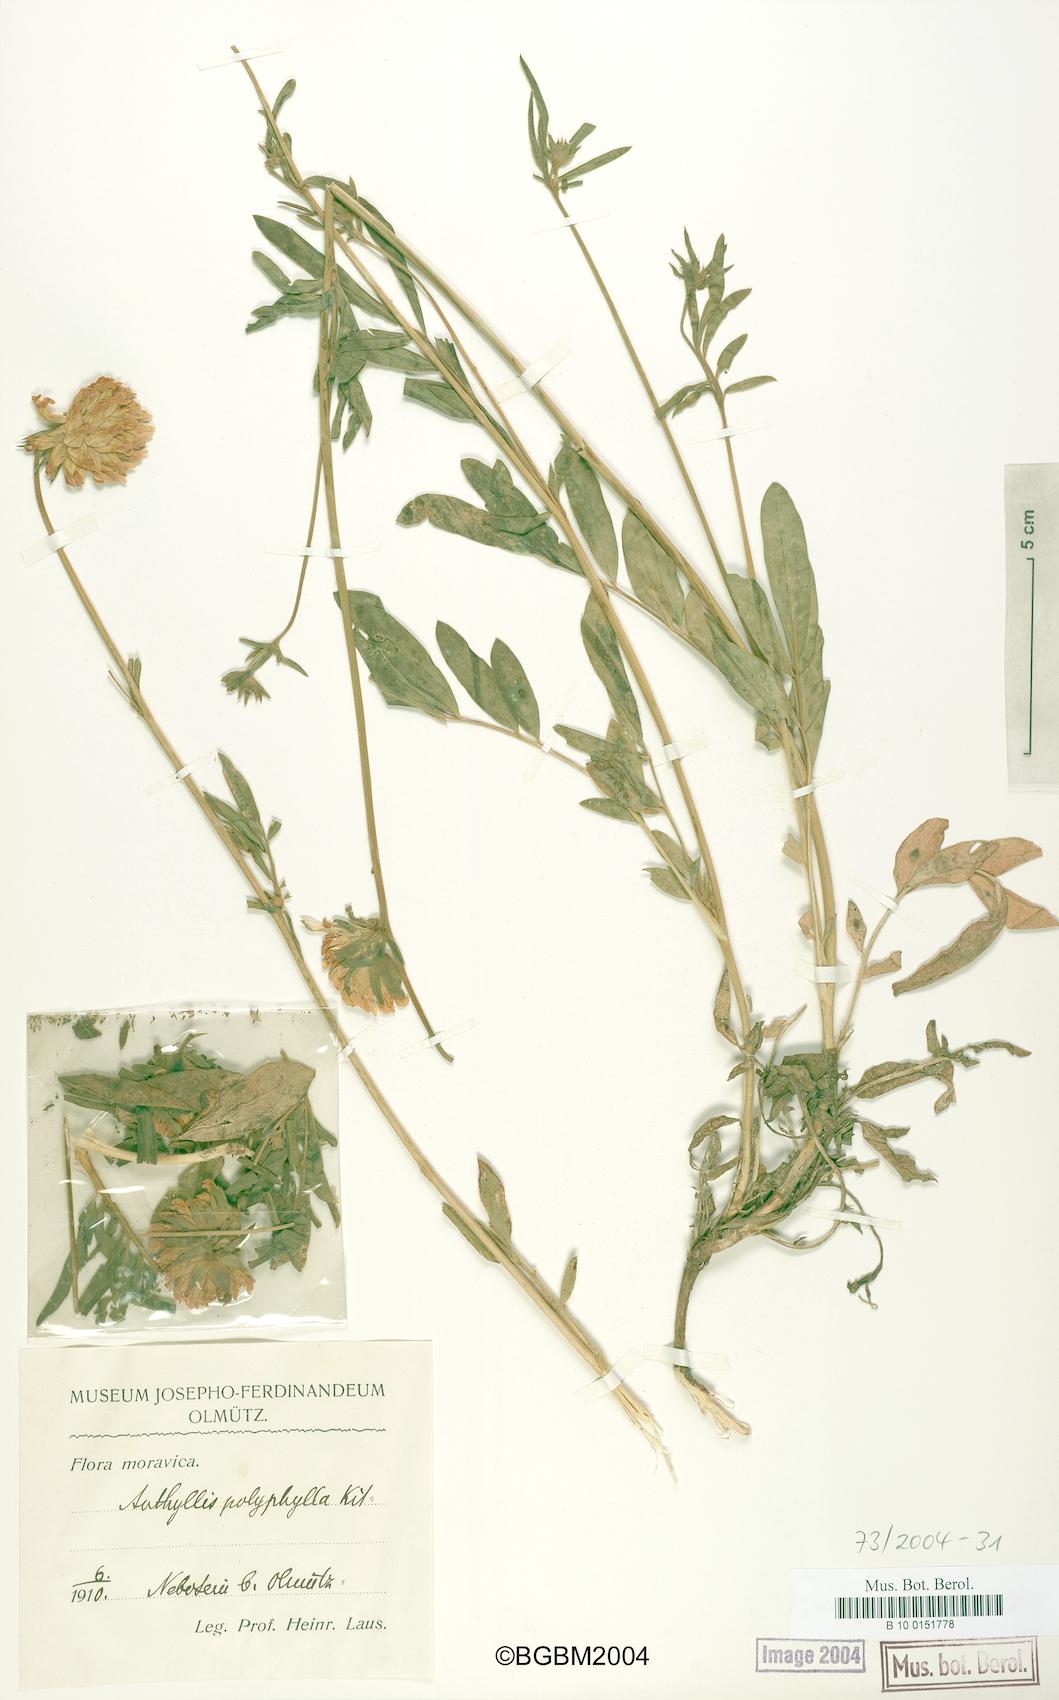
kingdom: Plantae
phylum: Tracheophyta
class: Magnoliopsida
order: Fabales
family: Fabaceae
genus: Anthyllis
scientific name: Anthyllis vulneraria
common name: Kidney vetch
